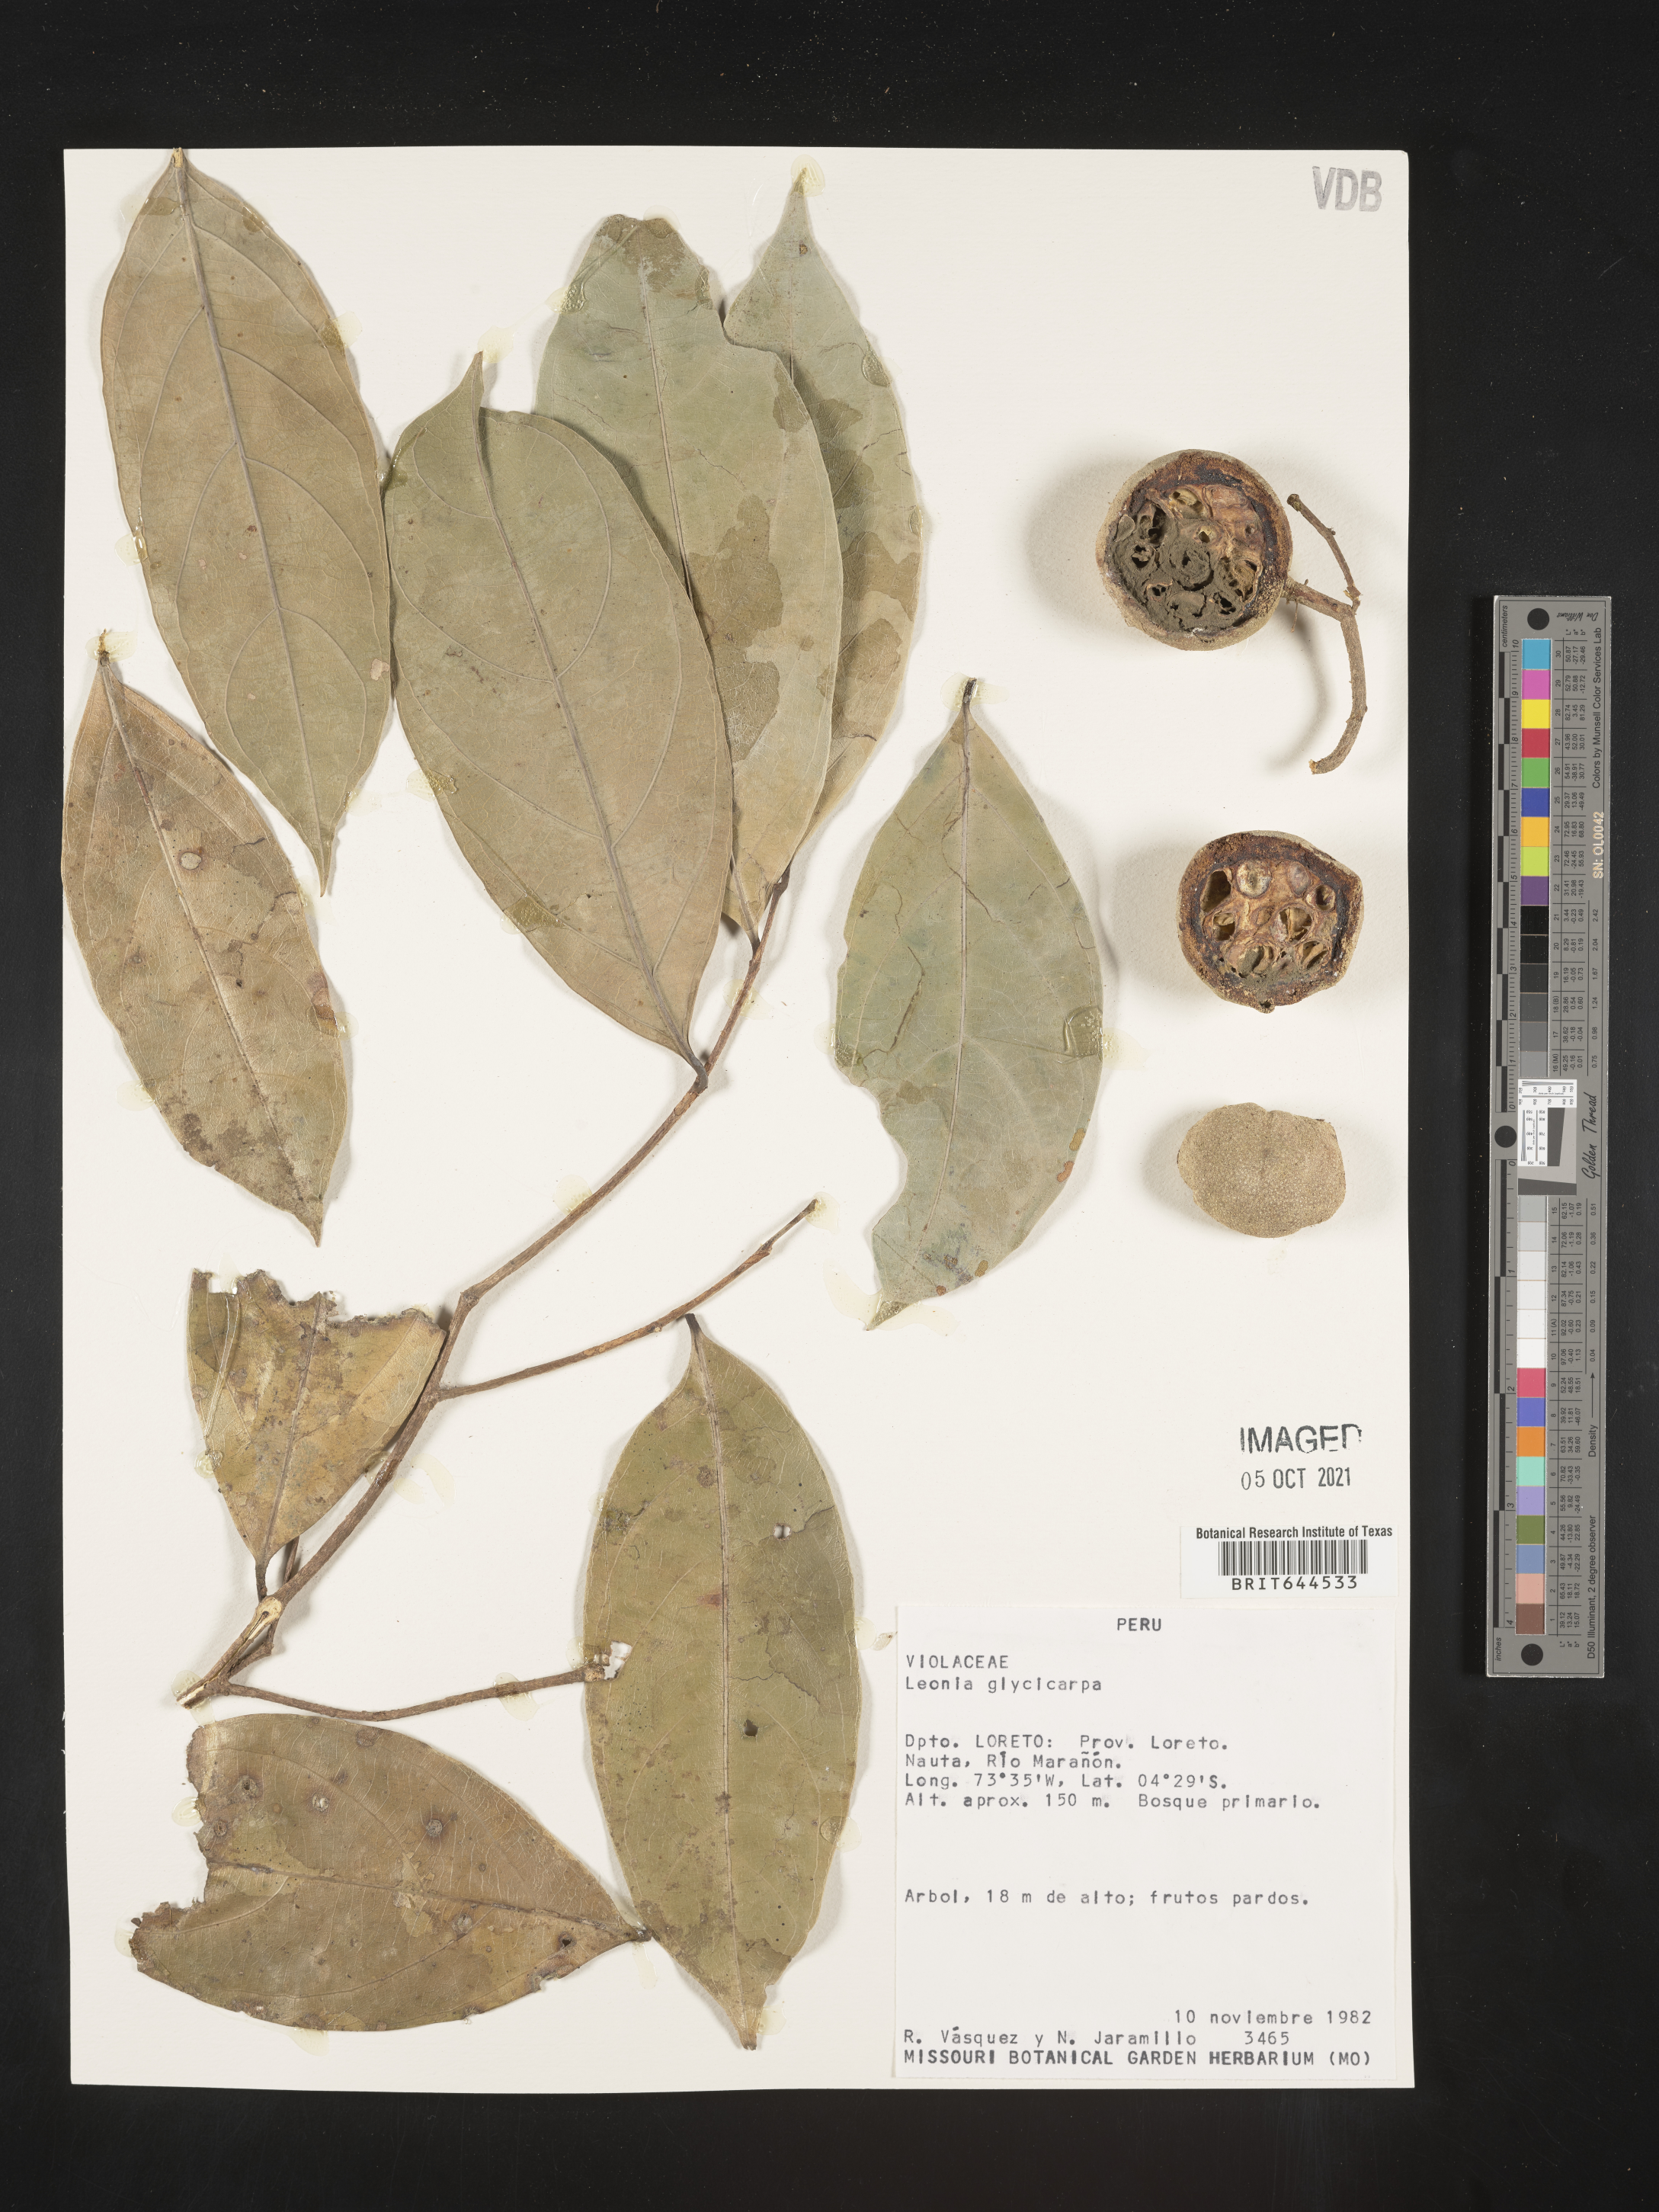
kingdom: Plantae
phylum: Tracheophyta
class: Magnoliopsida
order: Malpighiales
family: Violaceae
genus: Leonia
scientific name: Leonia
